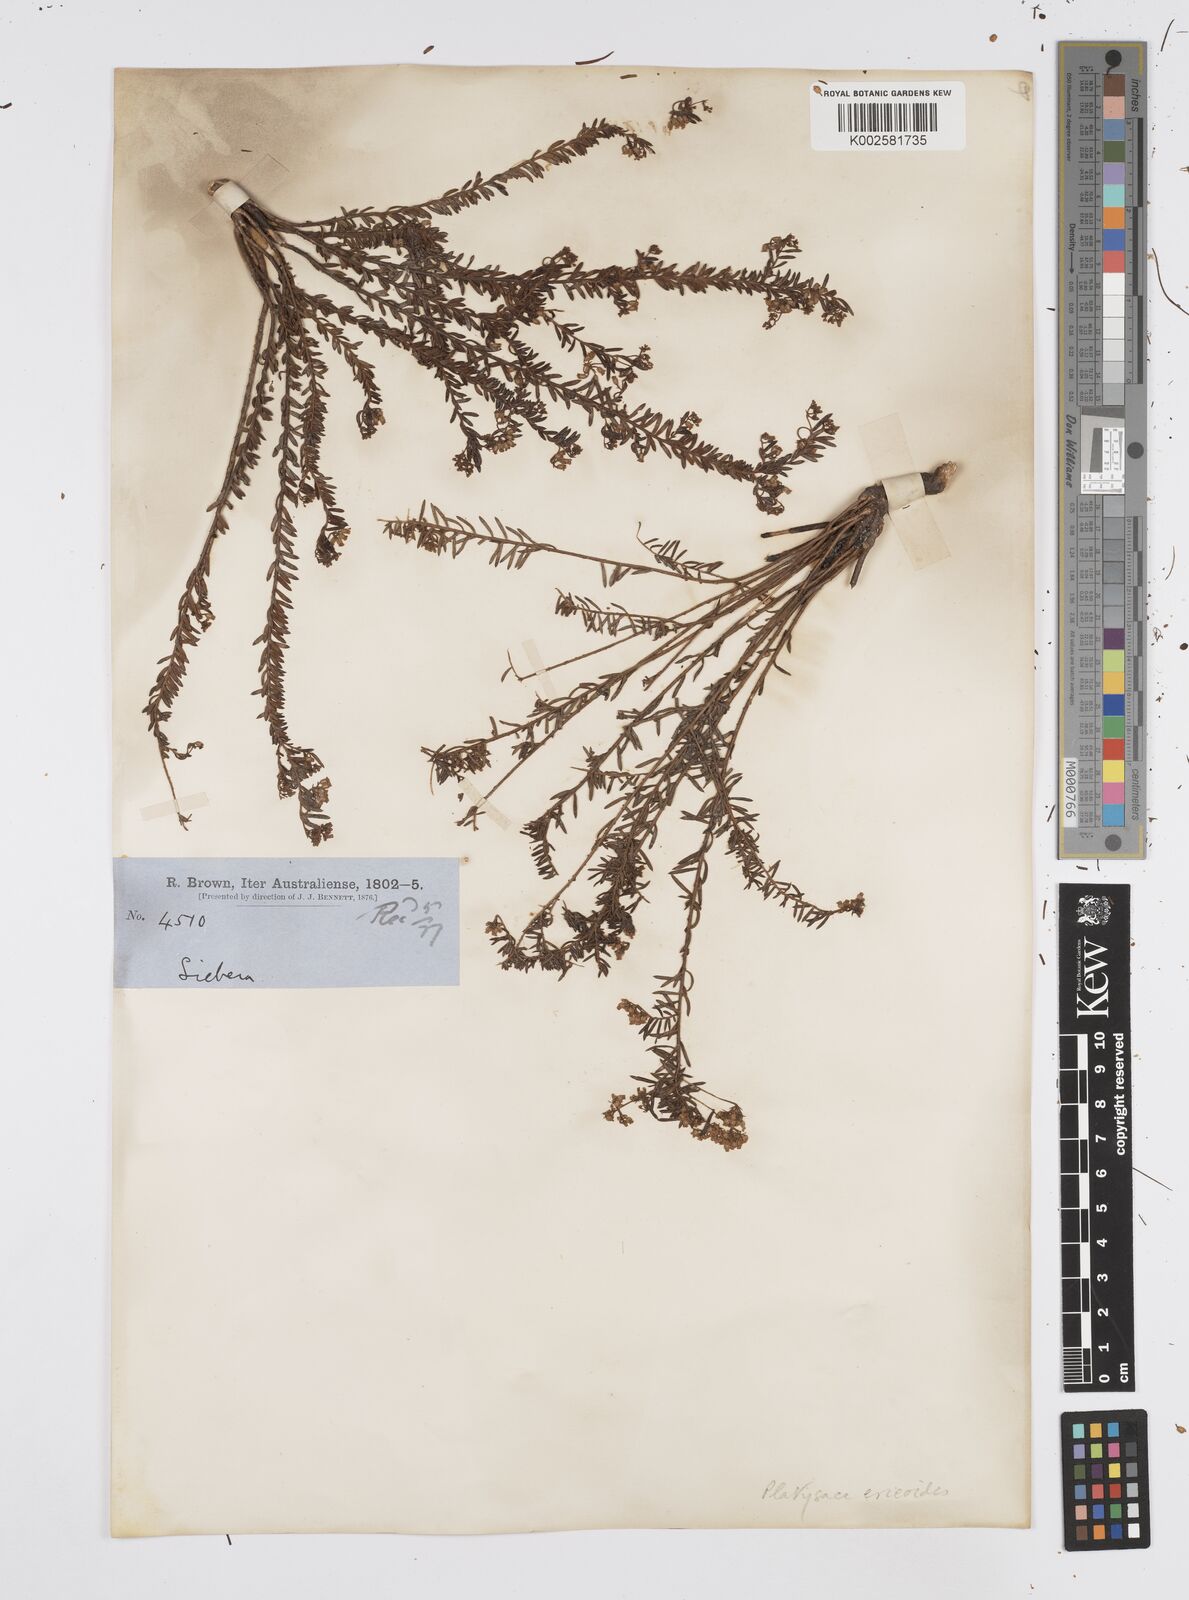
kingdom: Plantae
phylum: Tracheophyta
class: Magnoliopsida
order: Apiales
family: Apiaceae
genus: Platysace
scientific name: Platysace ericoides
